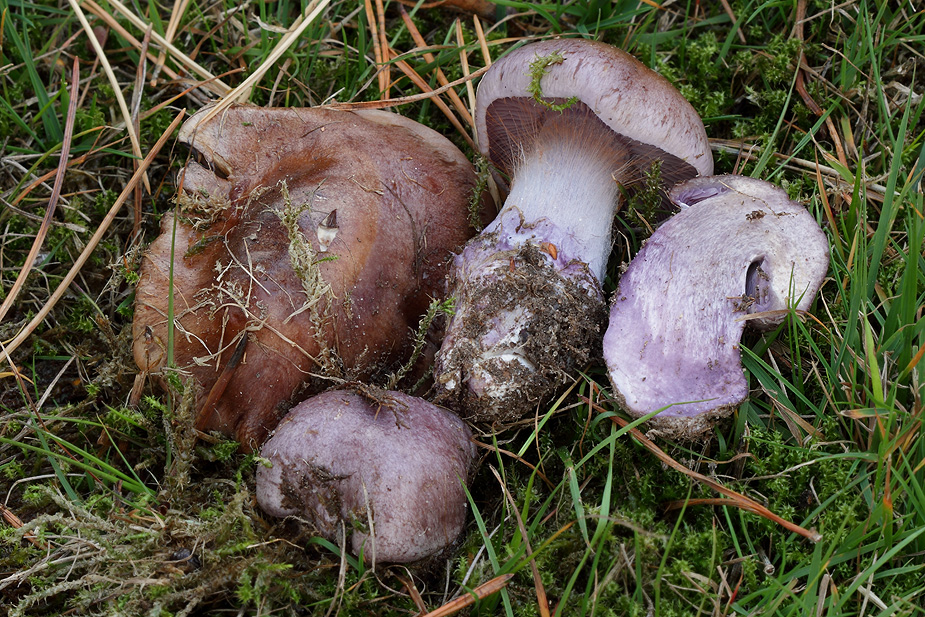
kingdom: Fungi
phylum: Basidiomycota
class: Agaricomycetes
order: Agaricales
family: Cortinariaceae
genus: Thaxterogaster
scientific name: Thaxterogaster subpurpurascens
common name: mørkblånende slørhat
